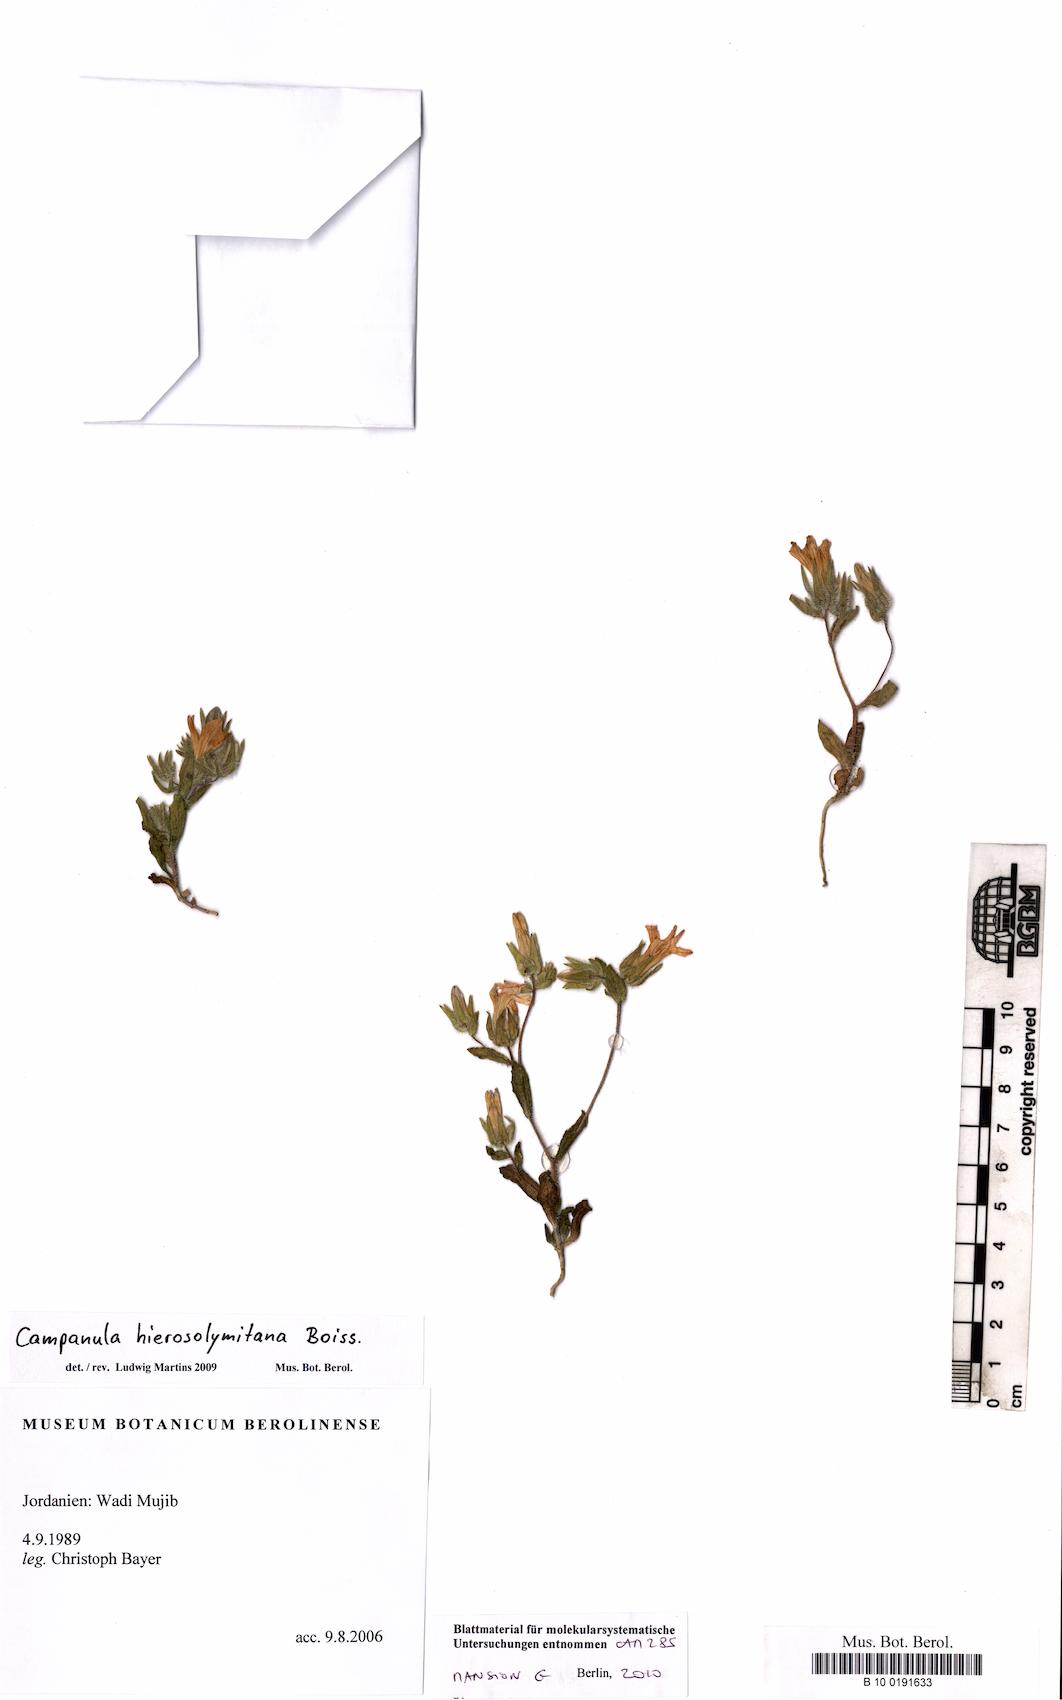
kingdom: Plantae
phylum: Tracheophyta
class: Magnoliopsida
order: Asterales
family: Campanulaceae
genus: Campanula
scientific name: Campanula hierosolymitana
